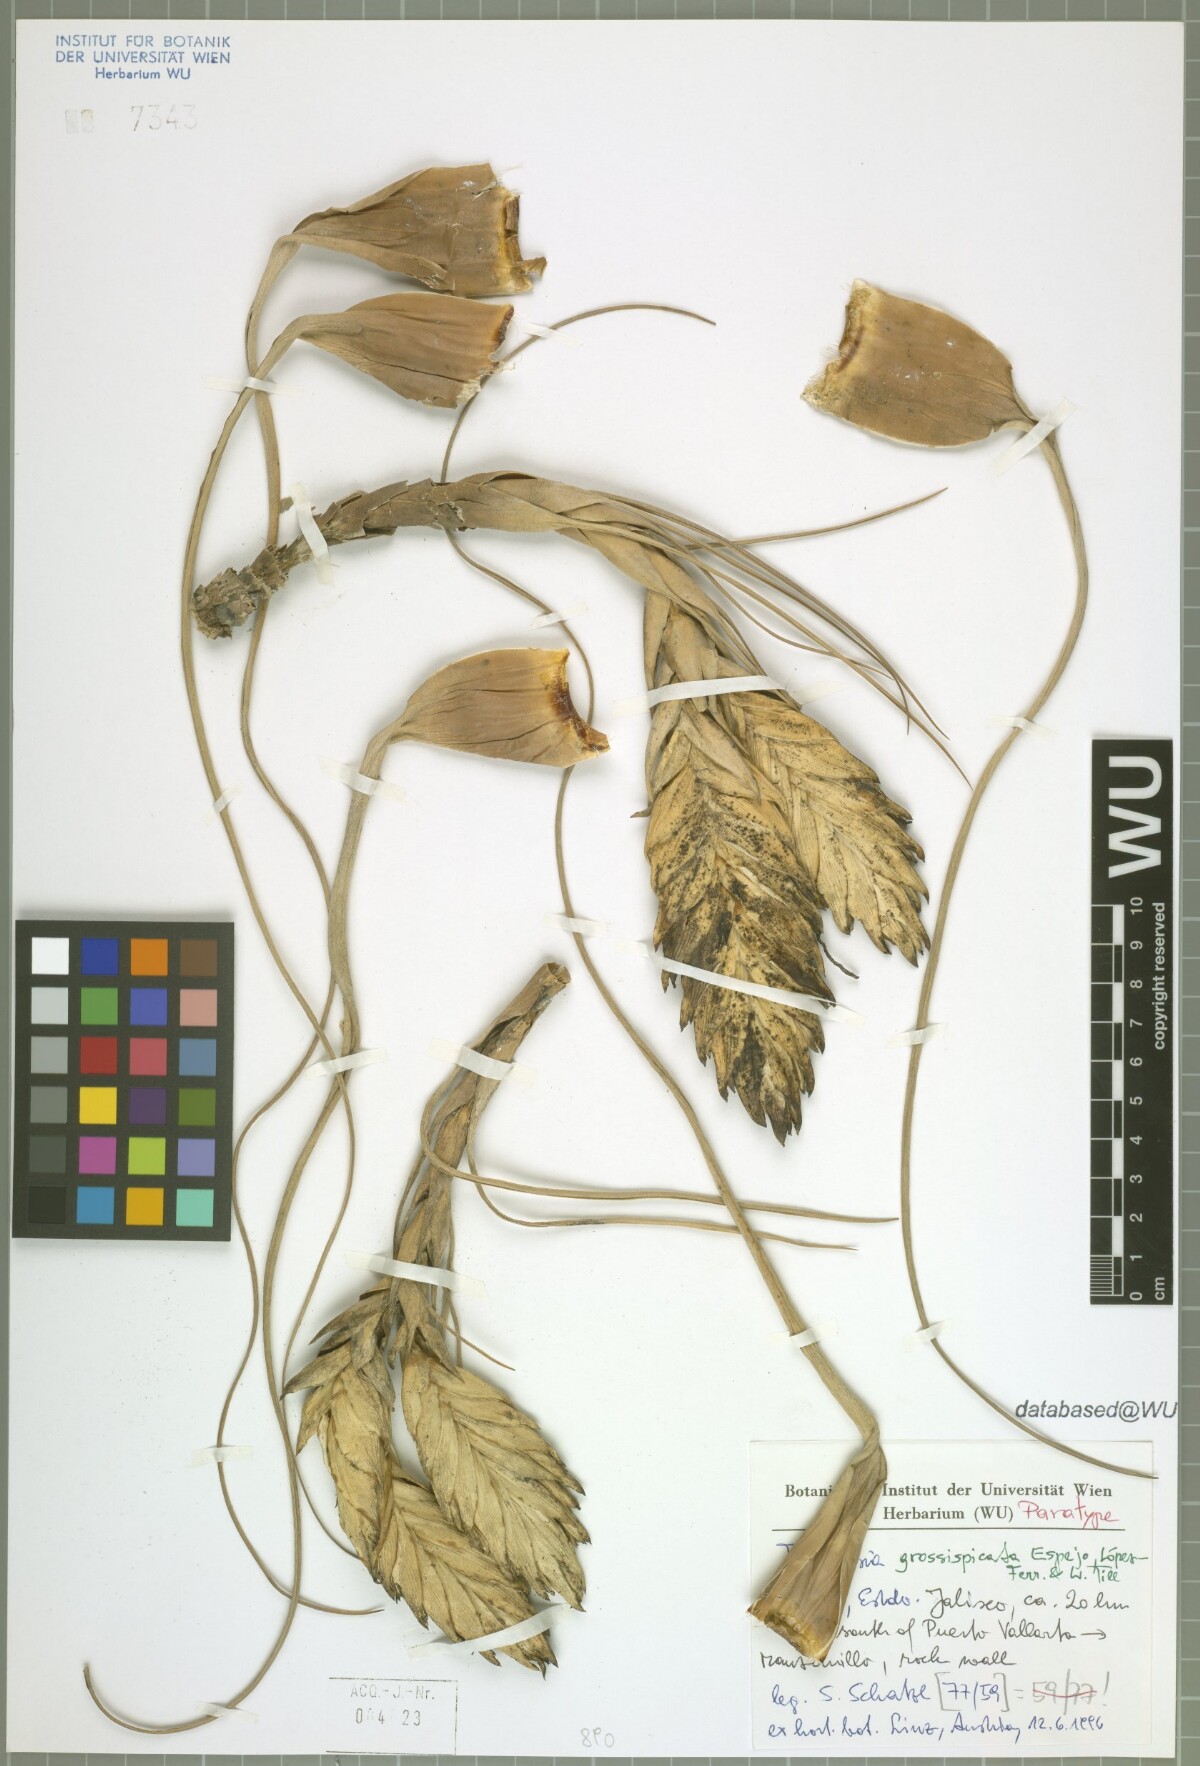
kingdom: Plantae
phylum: Tracheophyta
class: Liliopsida
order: Poales
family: Bromeliaceae
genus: Tillandsia
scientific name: Tillandsia grossispicata
